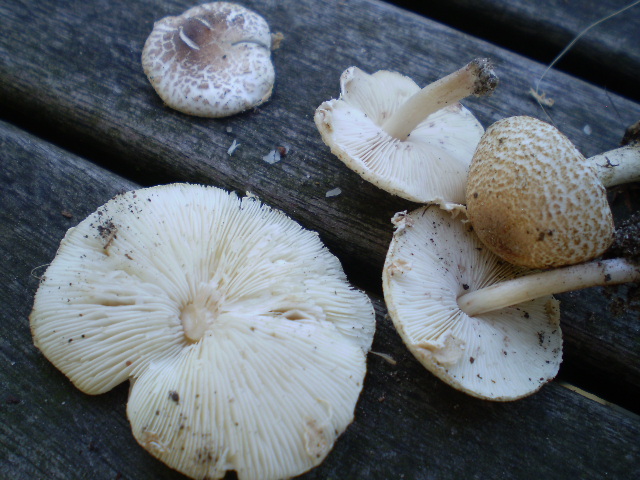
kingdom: Fungi
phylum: Basidiomycota
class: Agaricomycetes
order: Agaricales
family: Agaricaceae
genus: Lepiota
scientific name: Lepiota cristata
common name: stinkende parasolhat
